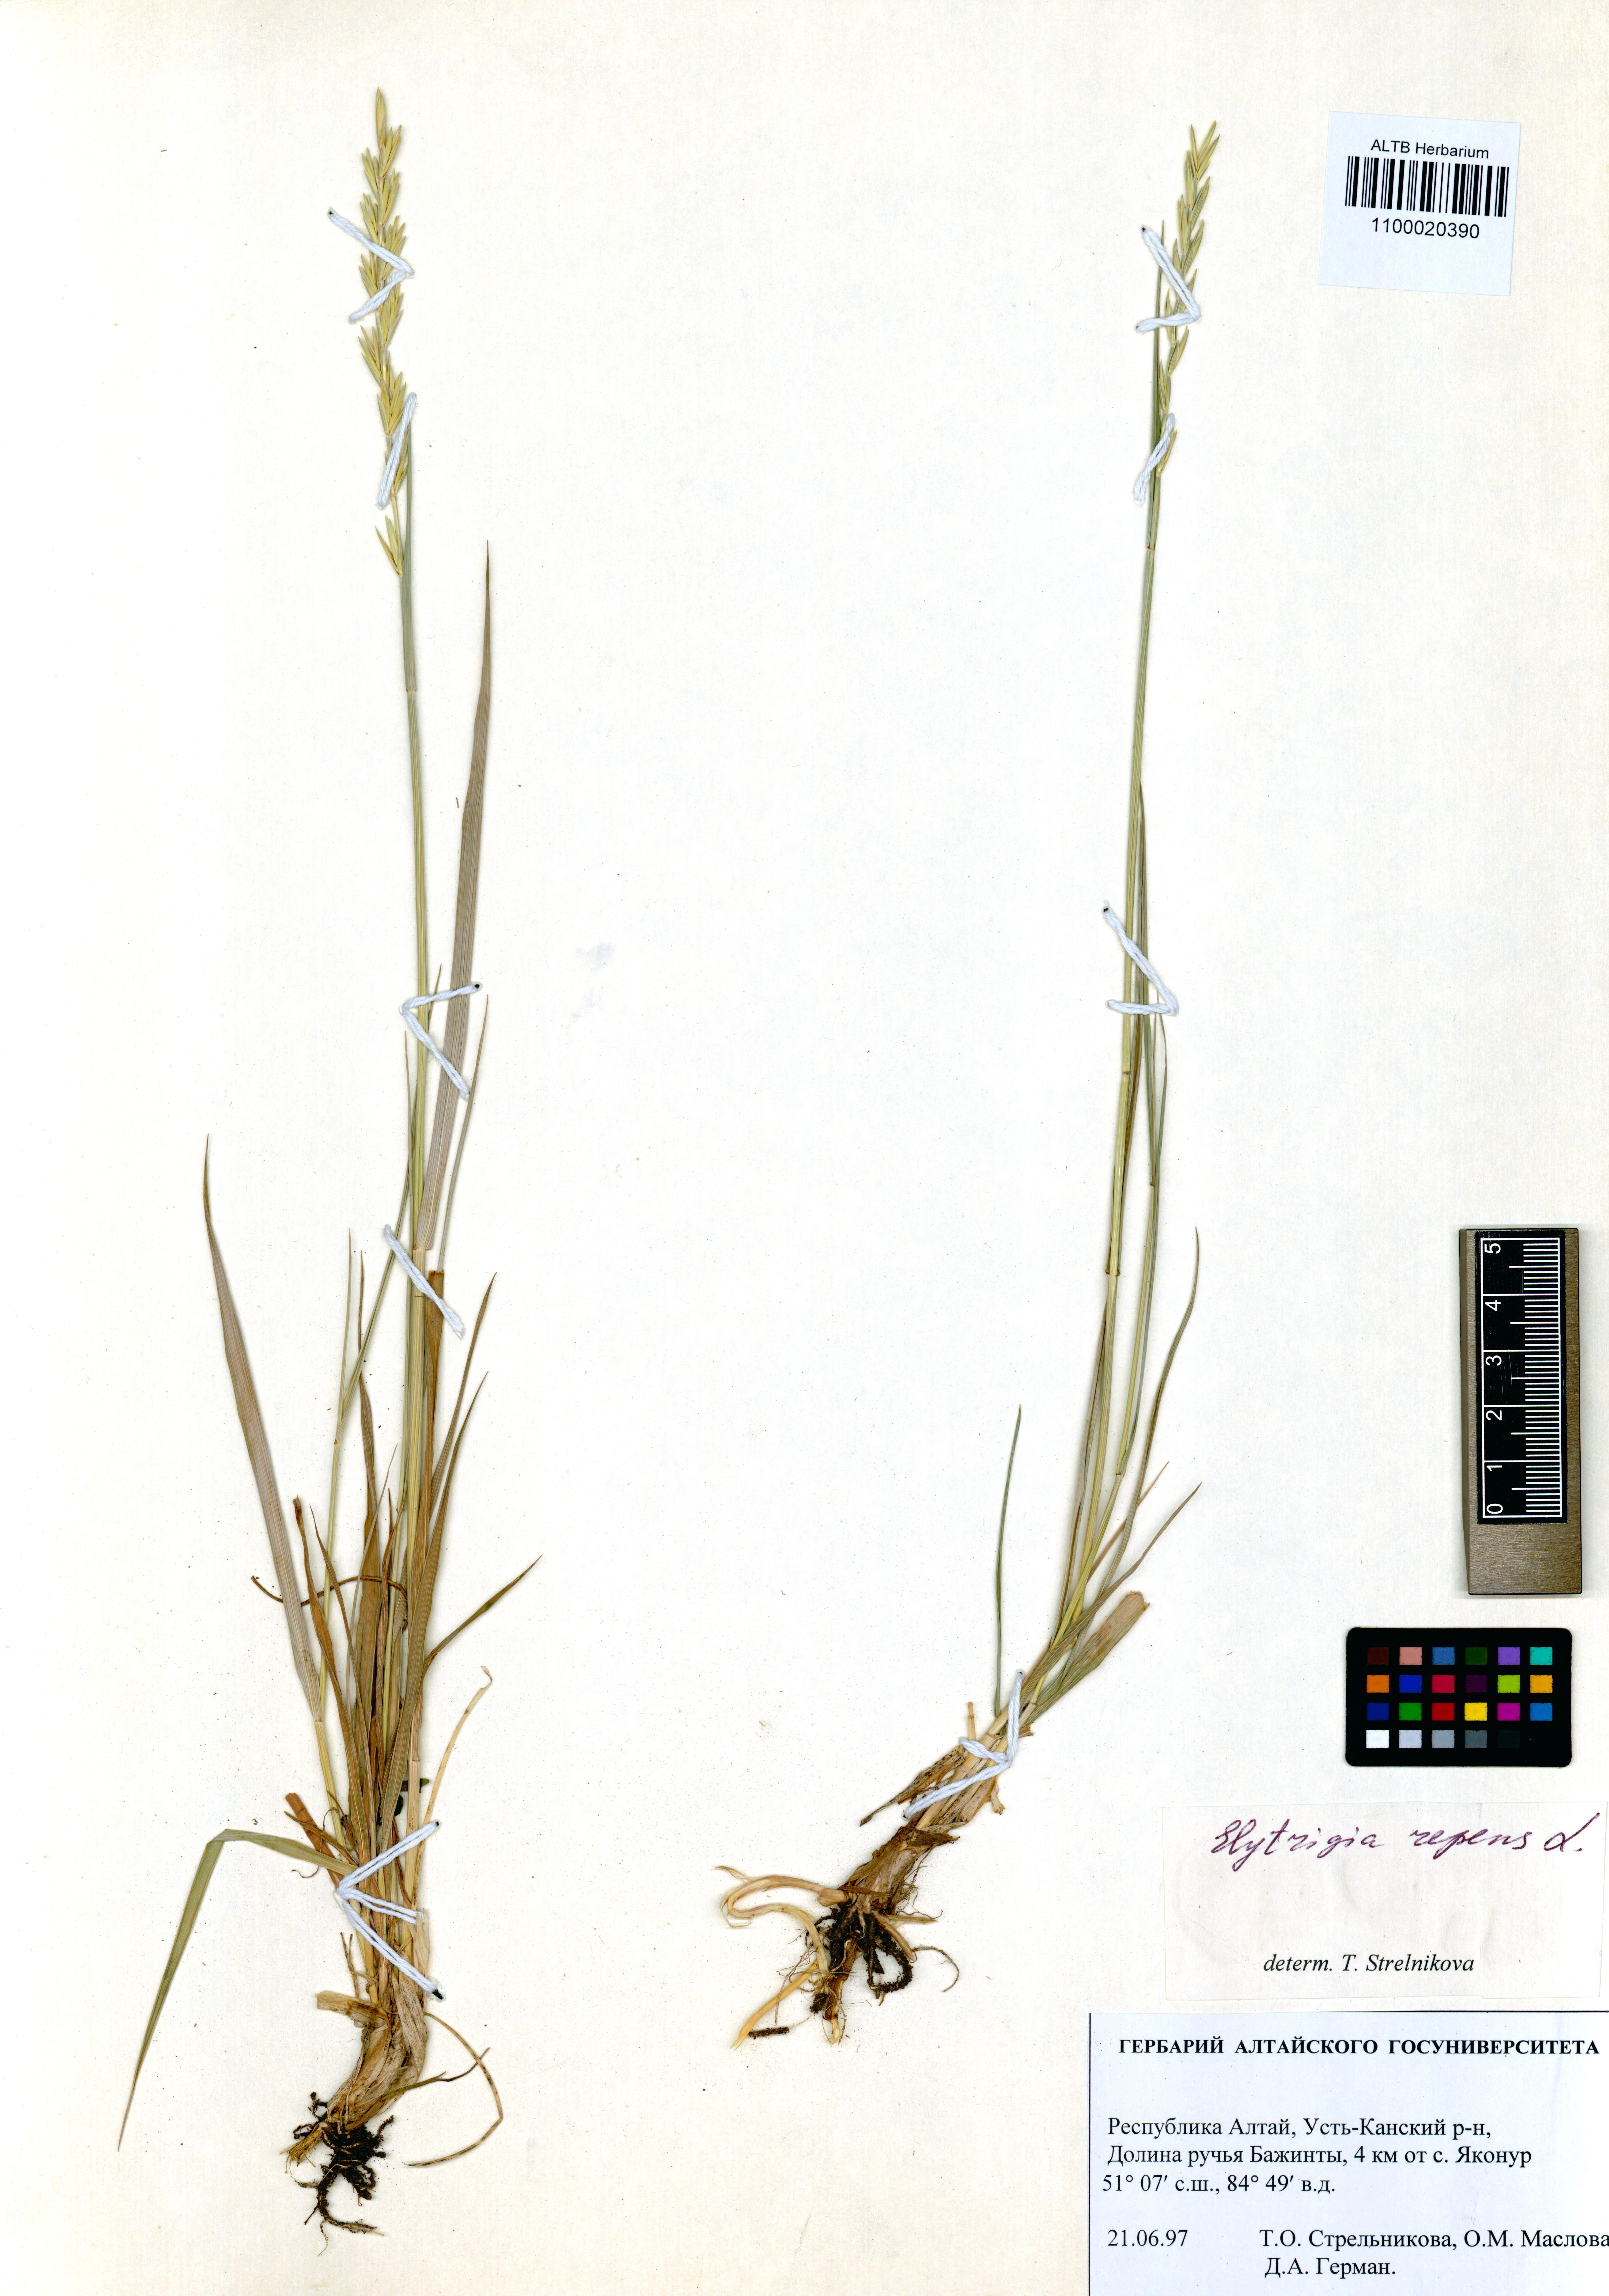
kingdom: Plantae
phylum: Tracheophyta
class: Liliopsida
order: Poales
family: Poaceae
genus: Elymus
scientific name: Elymus repens
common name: Quackgrass
